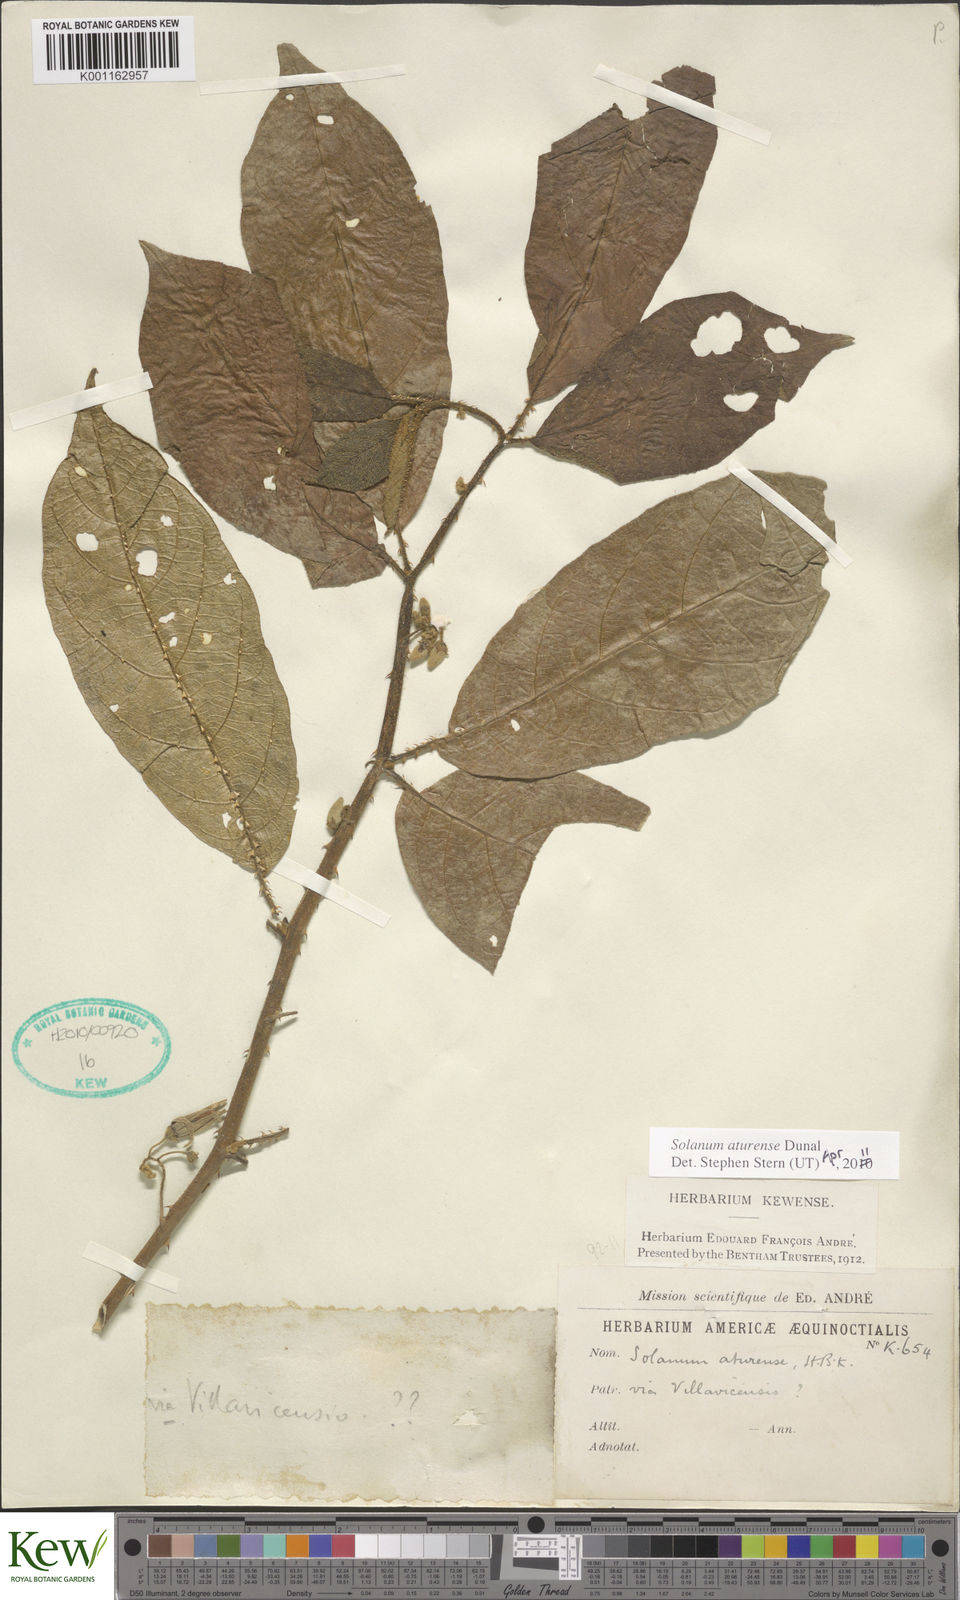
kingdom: Plantae
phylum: Tracheophyta
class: Magnoliopsida
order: Solanales
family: Solanaceae
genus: Solanum
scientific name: Solanum aturense
